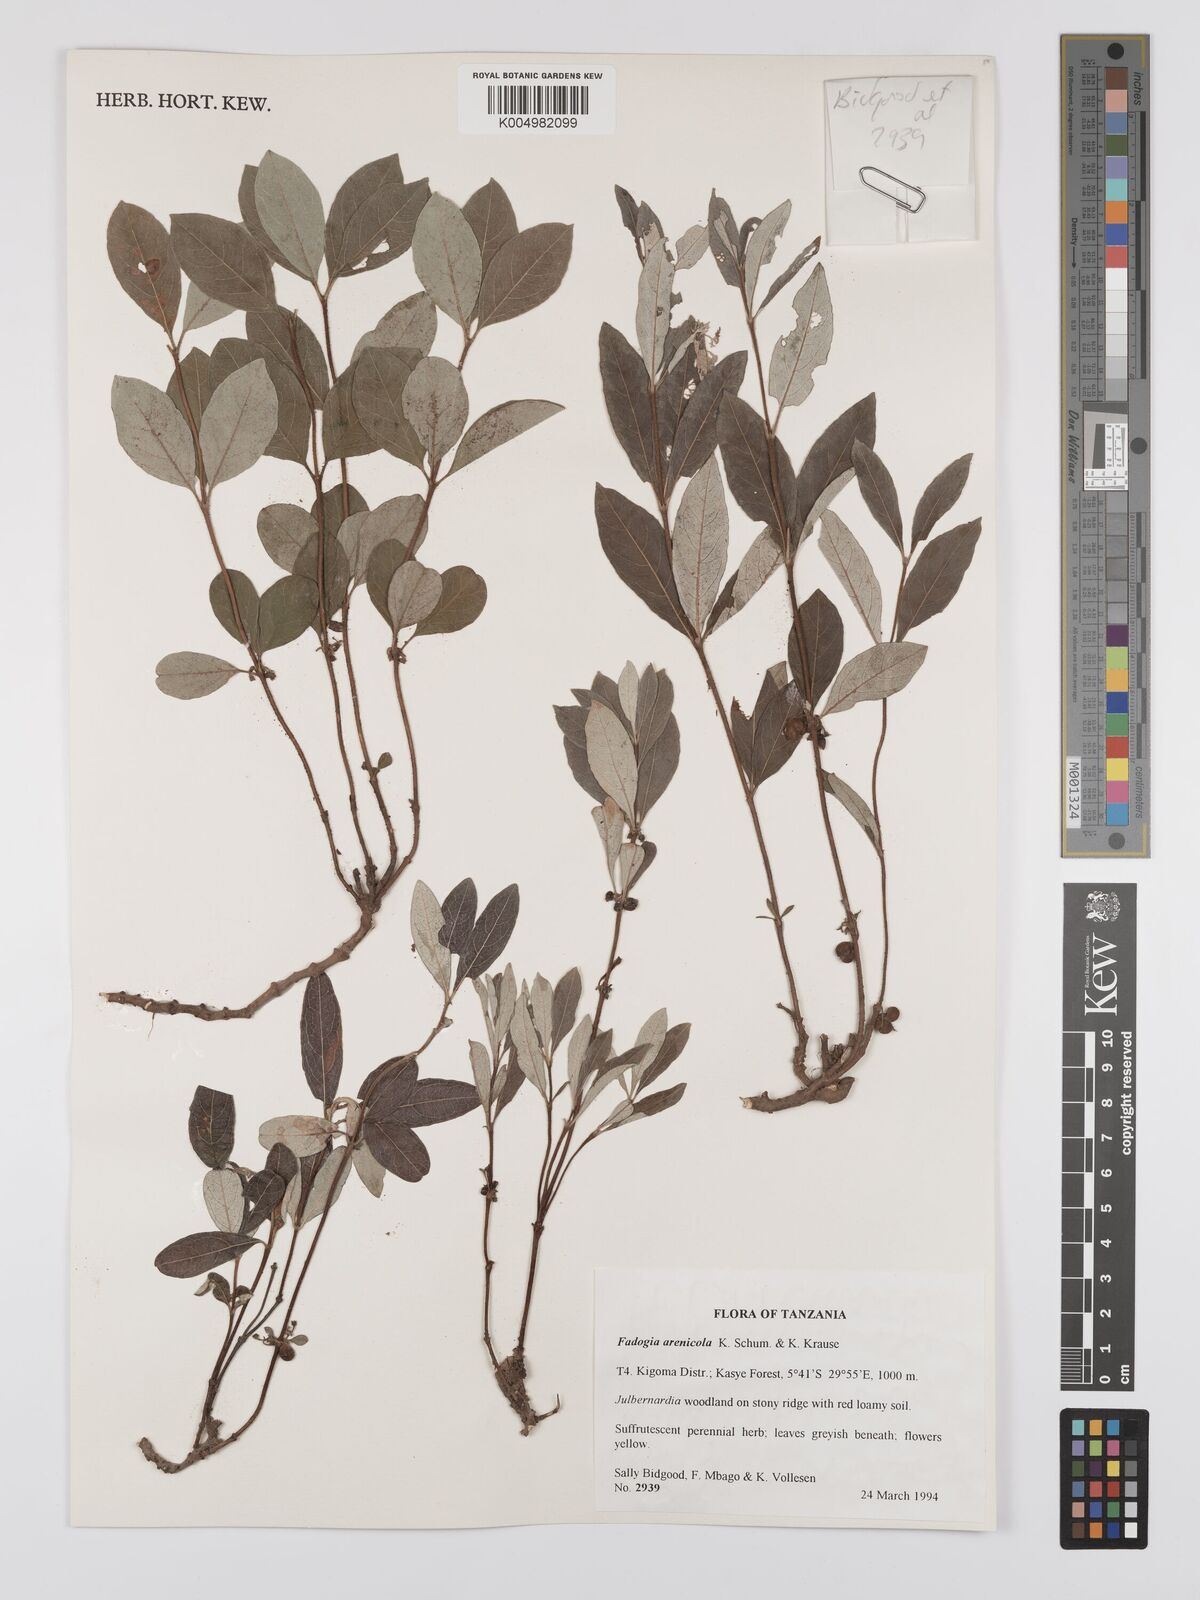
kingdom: Plantae
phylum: Tracheophyta
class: Magnoliopsida
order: Gentianales
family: Rubiaceae
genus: Fadogia
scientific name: Fadogia arenicola
